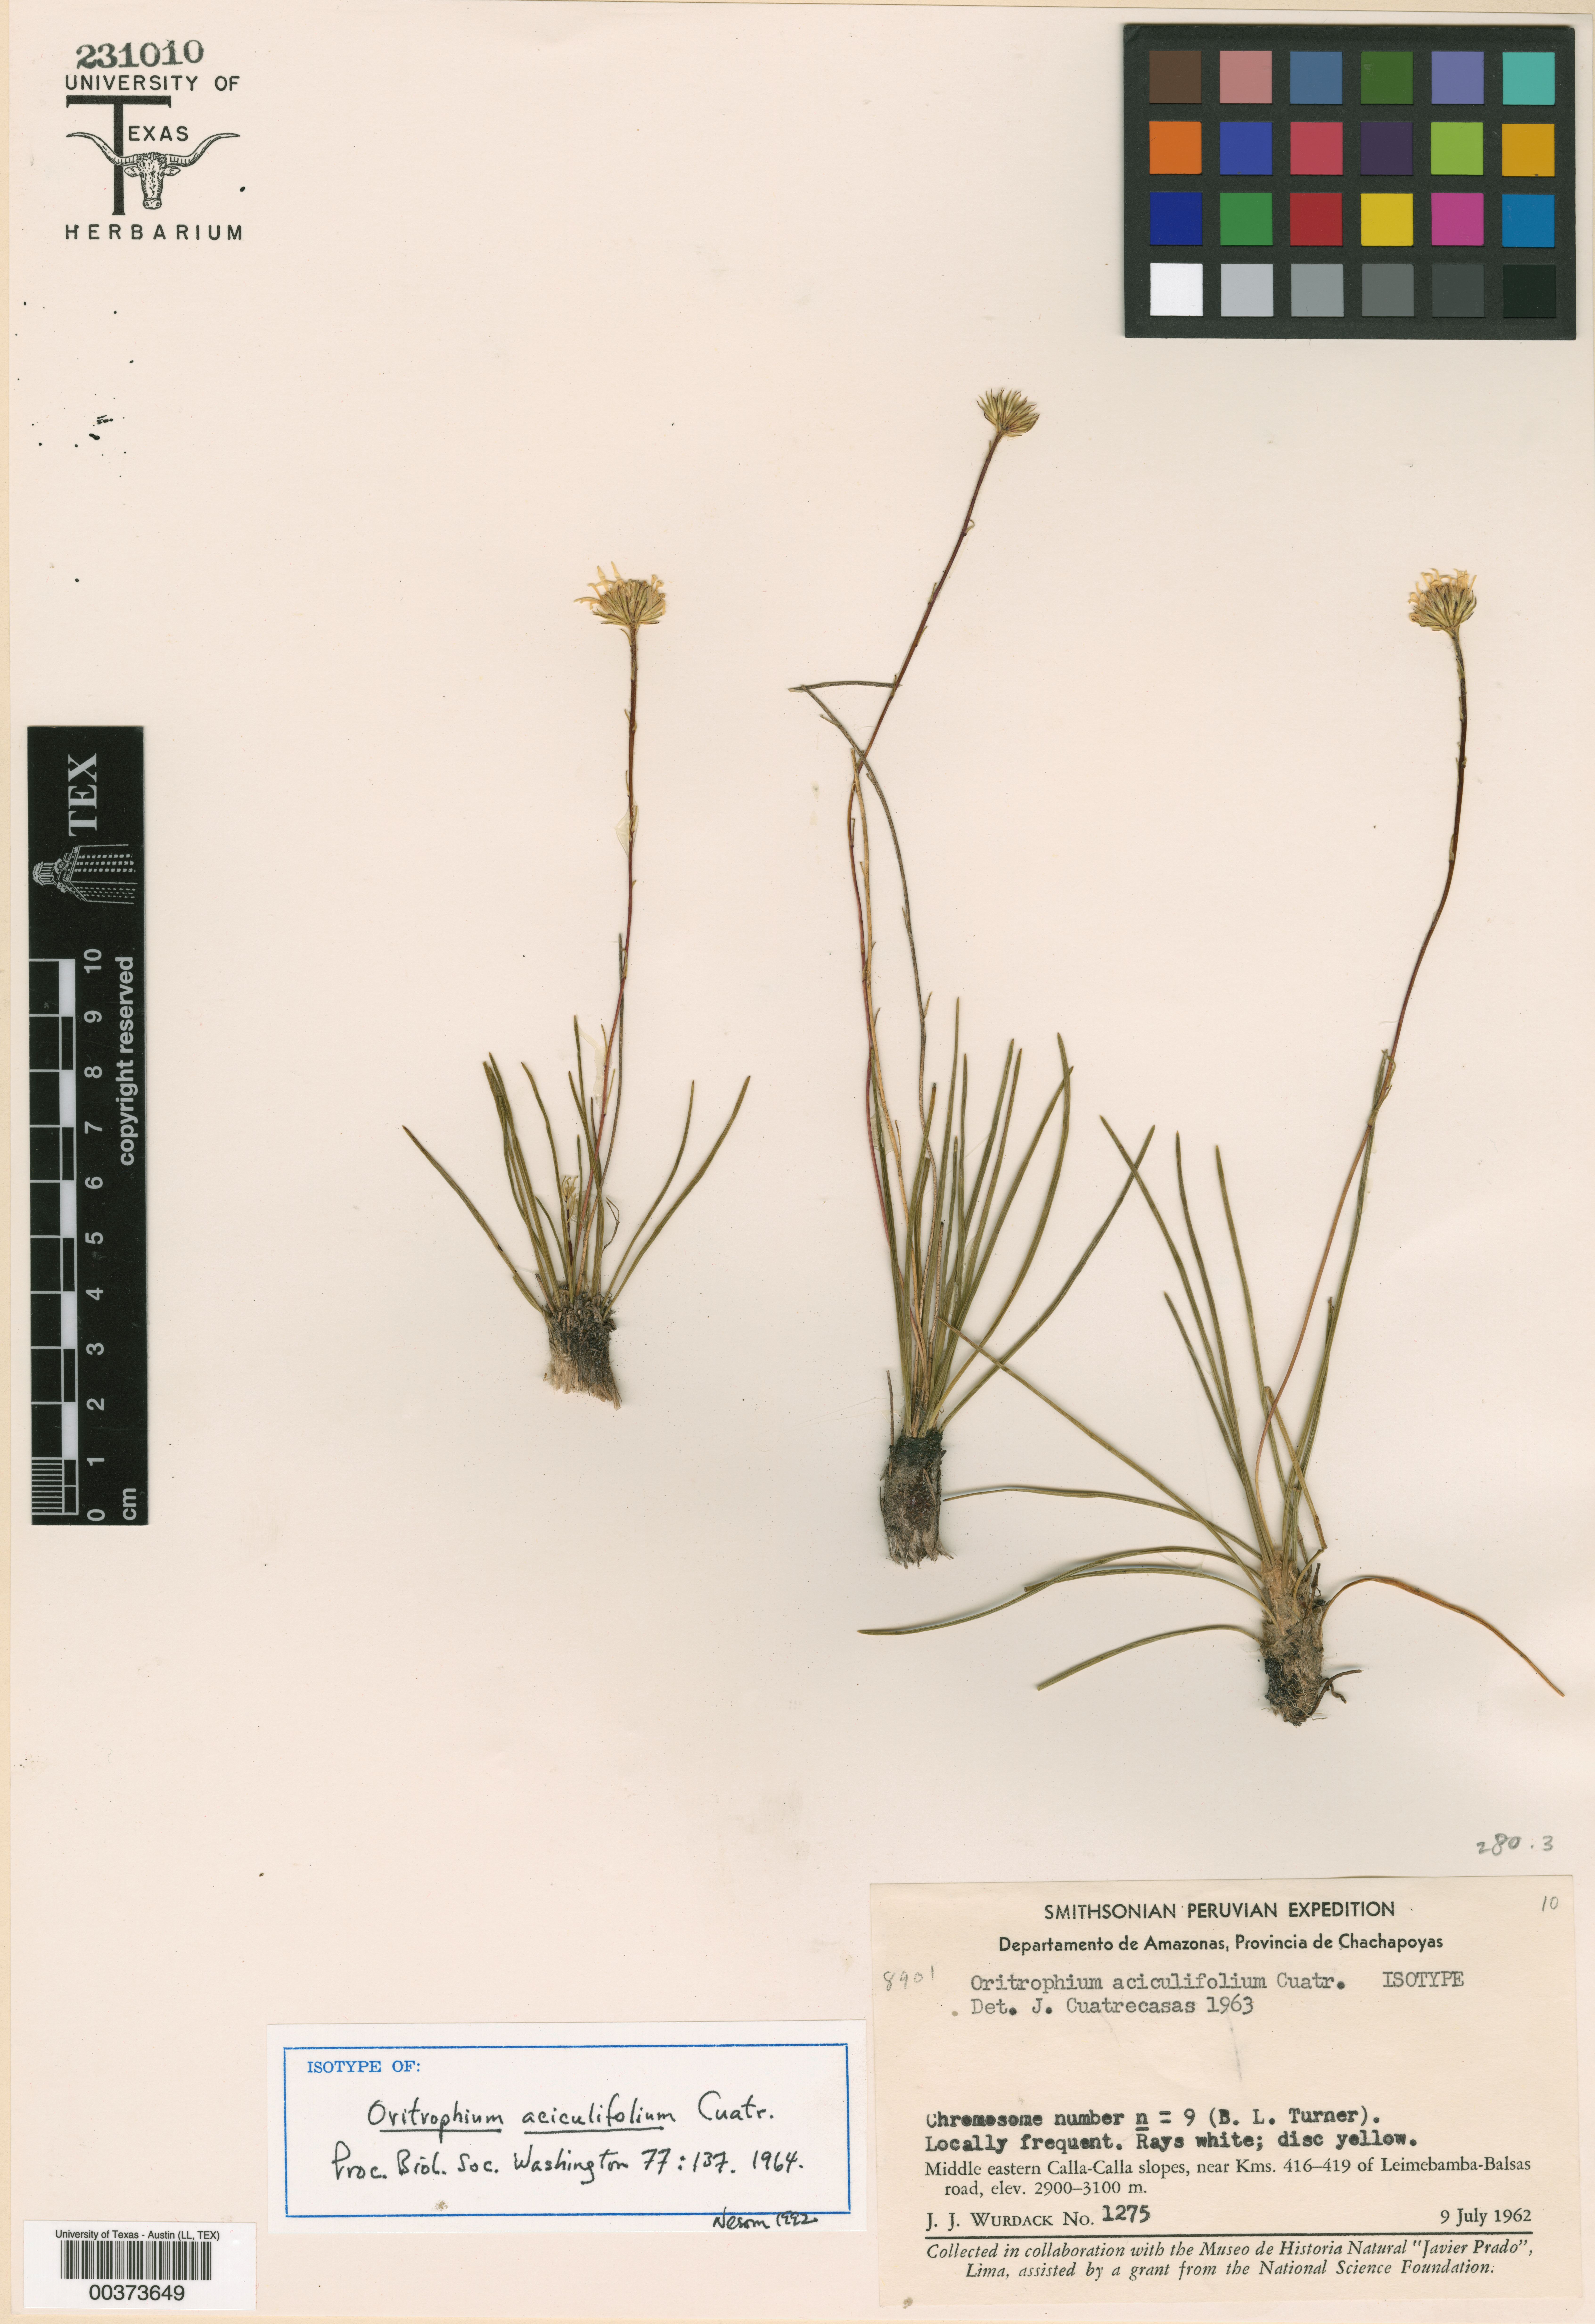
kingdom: Plantae
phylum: Tracheophyta
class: Magnoliopsida
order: Asterales
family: Asteraceae
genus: Oritrophium
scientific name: Oritrophium aciculifolium
